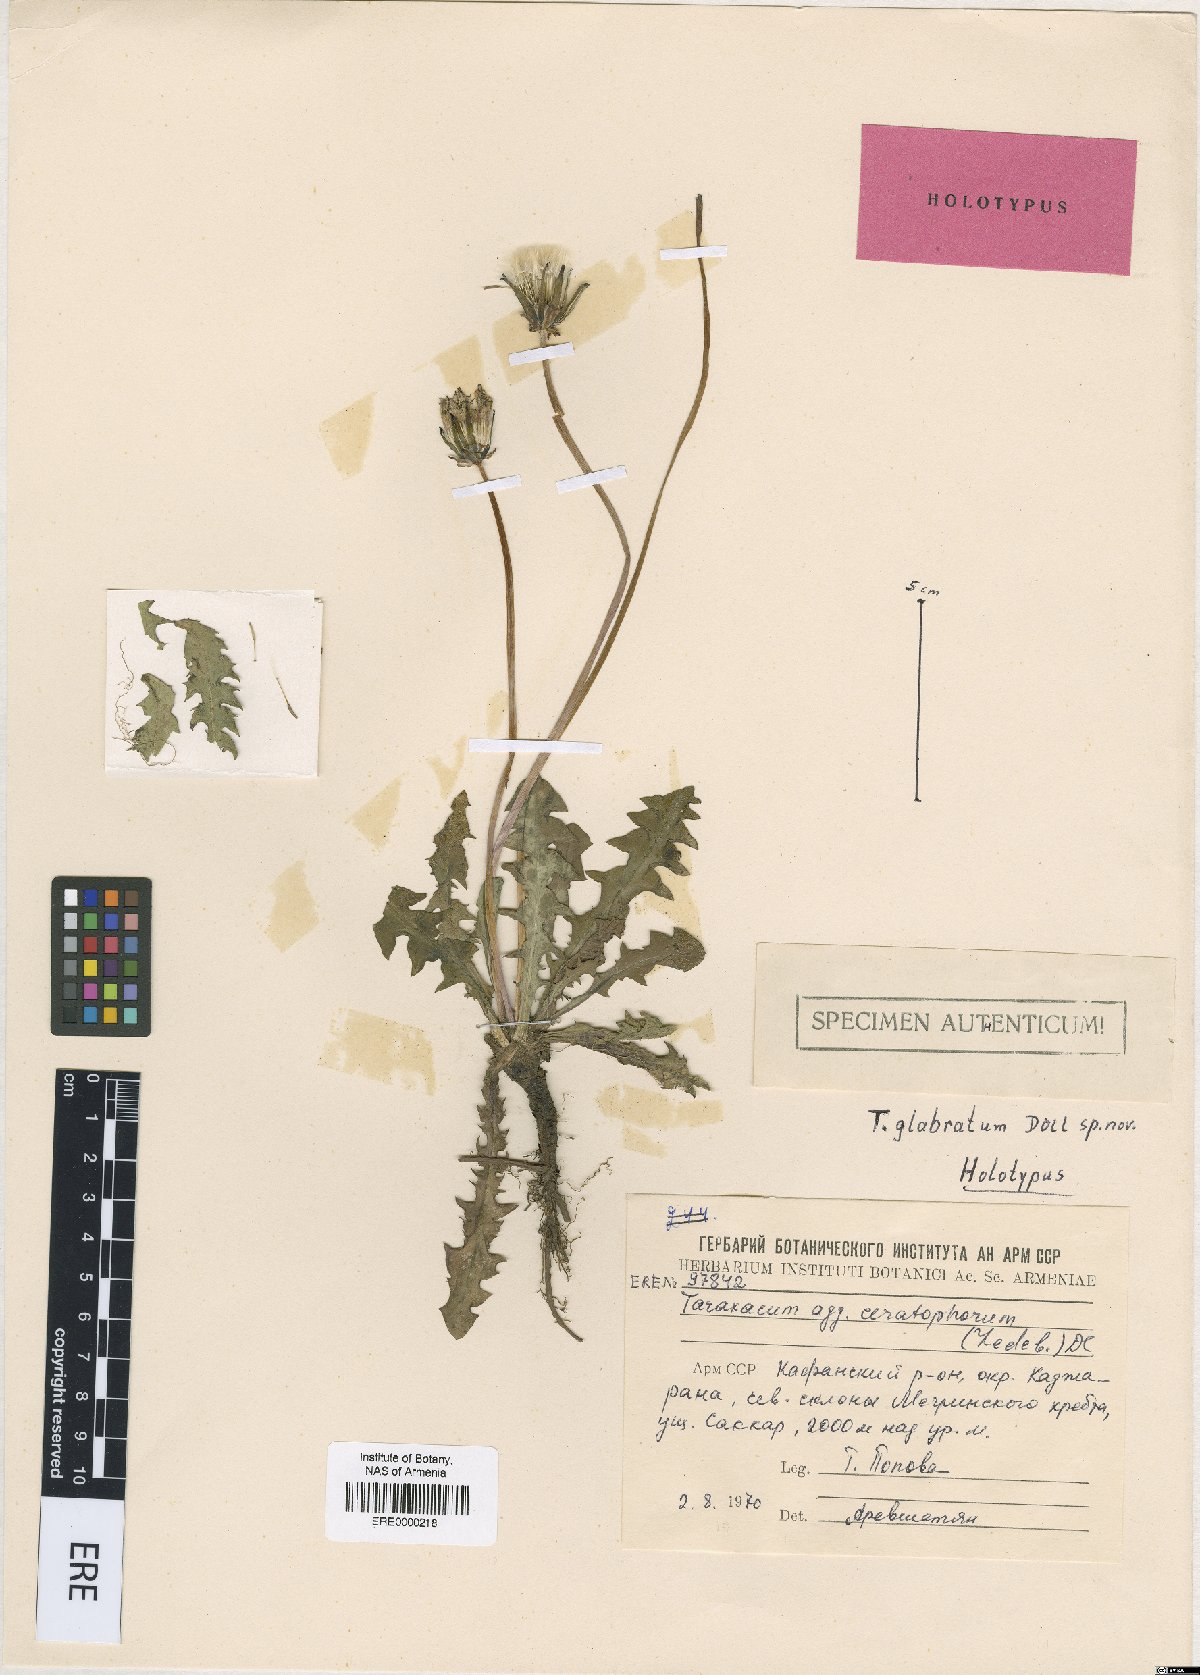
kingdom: Plantae
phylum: Tracheophyta
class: Magnoliopsida
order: Asterales
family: Asteraceae
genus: Taraxacum
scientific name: Taraxacum glaberrimum
